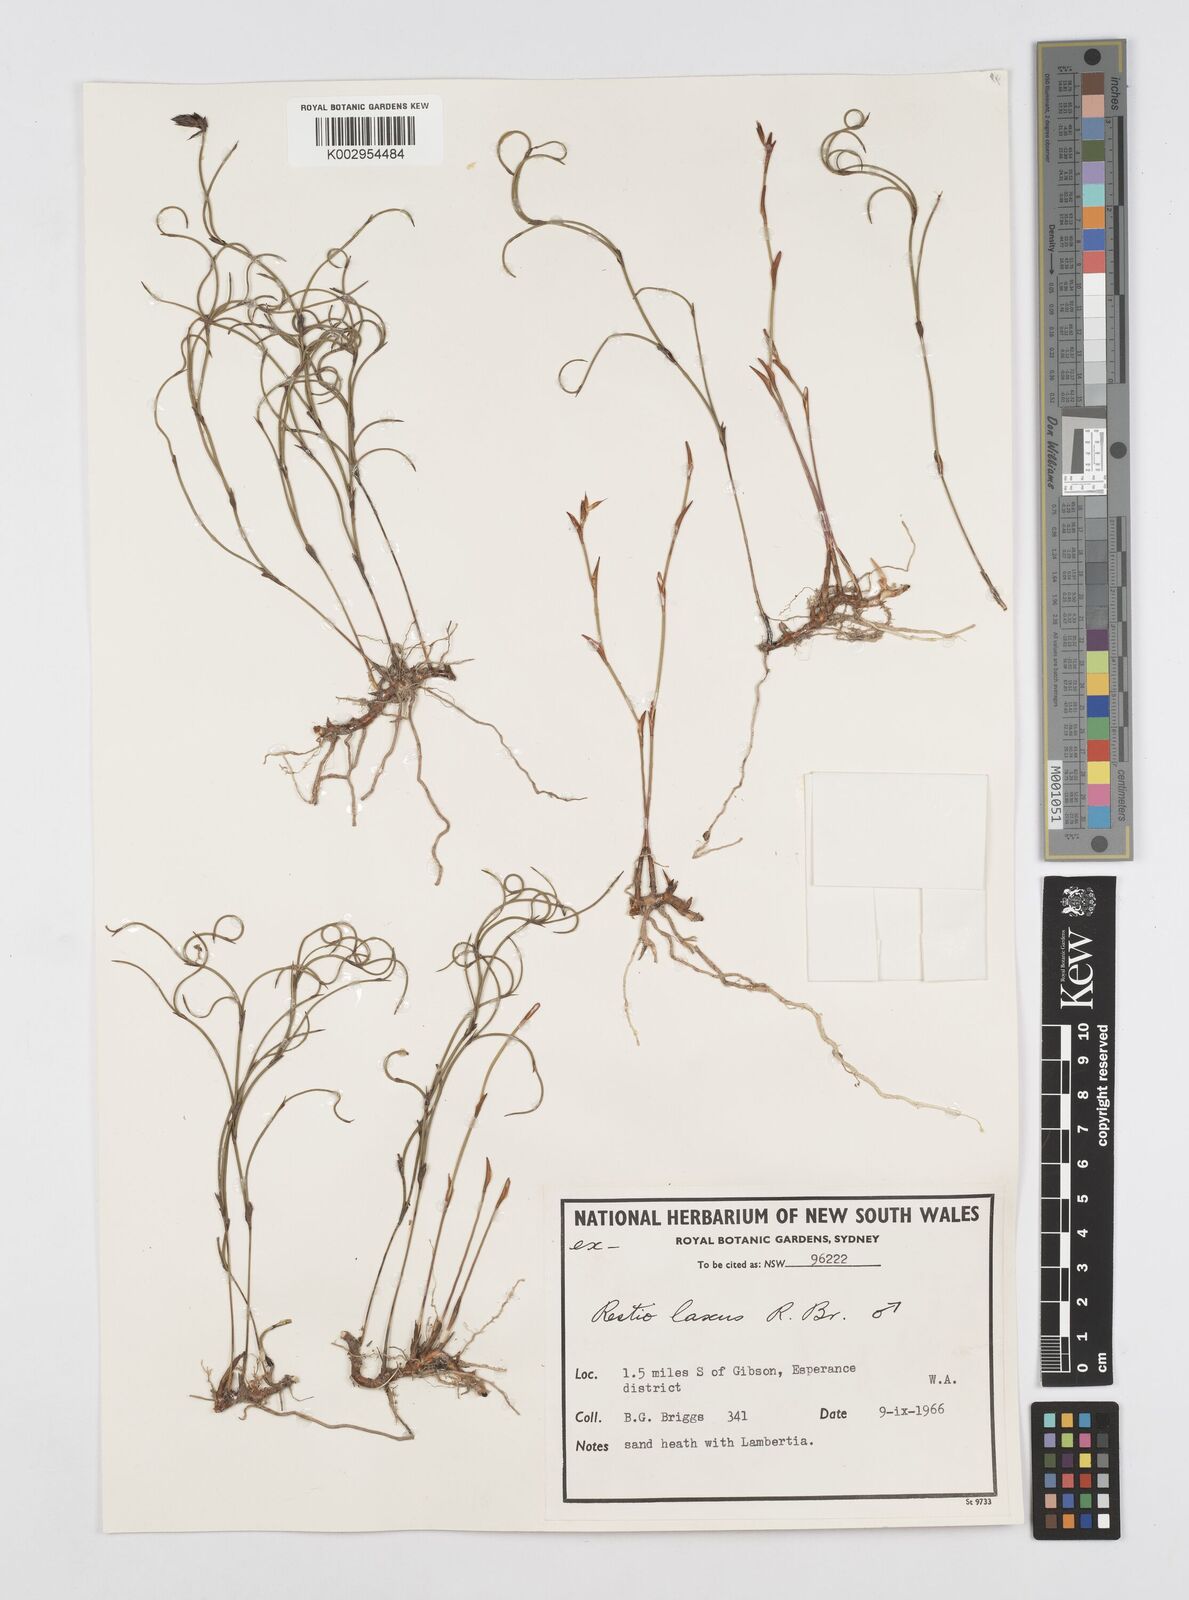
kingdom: Plantae
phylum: Tracheophyta
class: Liliopsida
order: Poales
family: Restionaceae
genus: Chordifex
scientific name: Chordifex laxus
